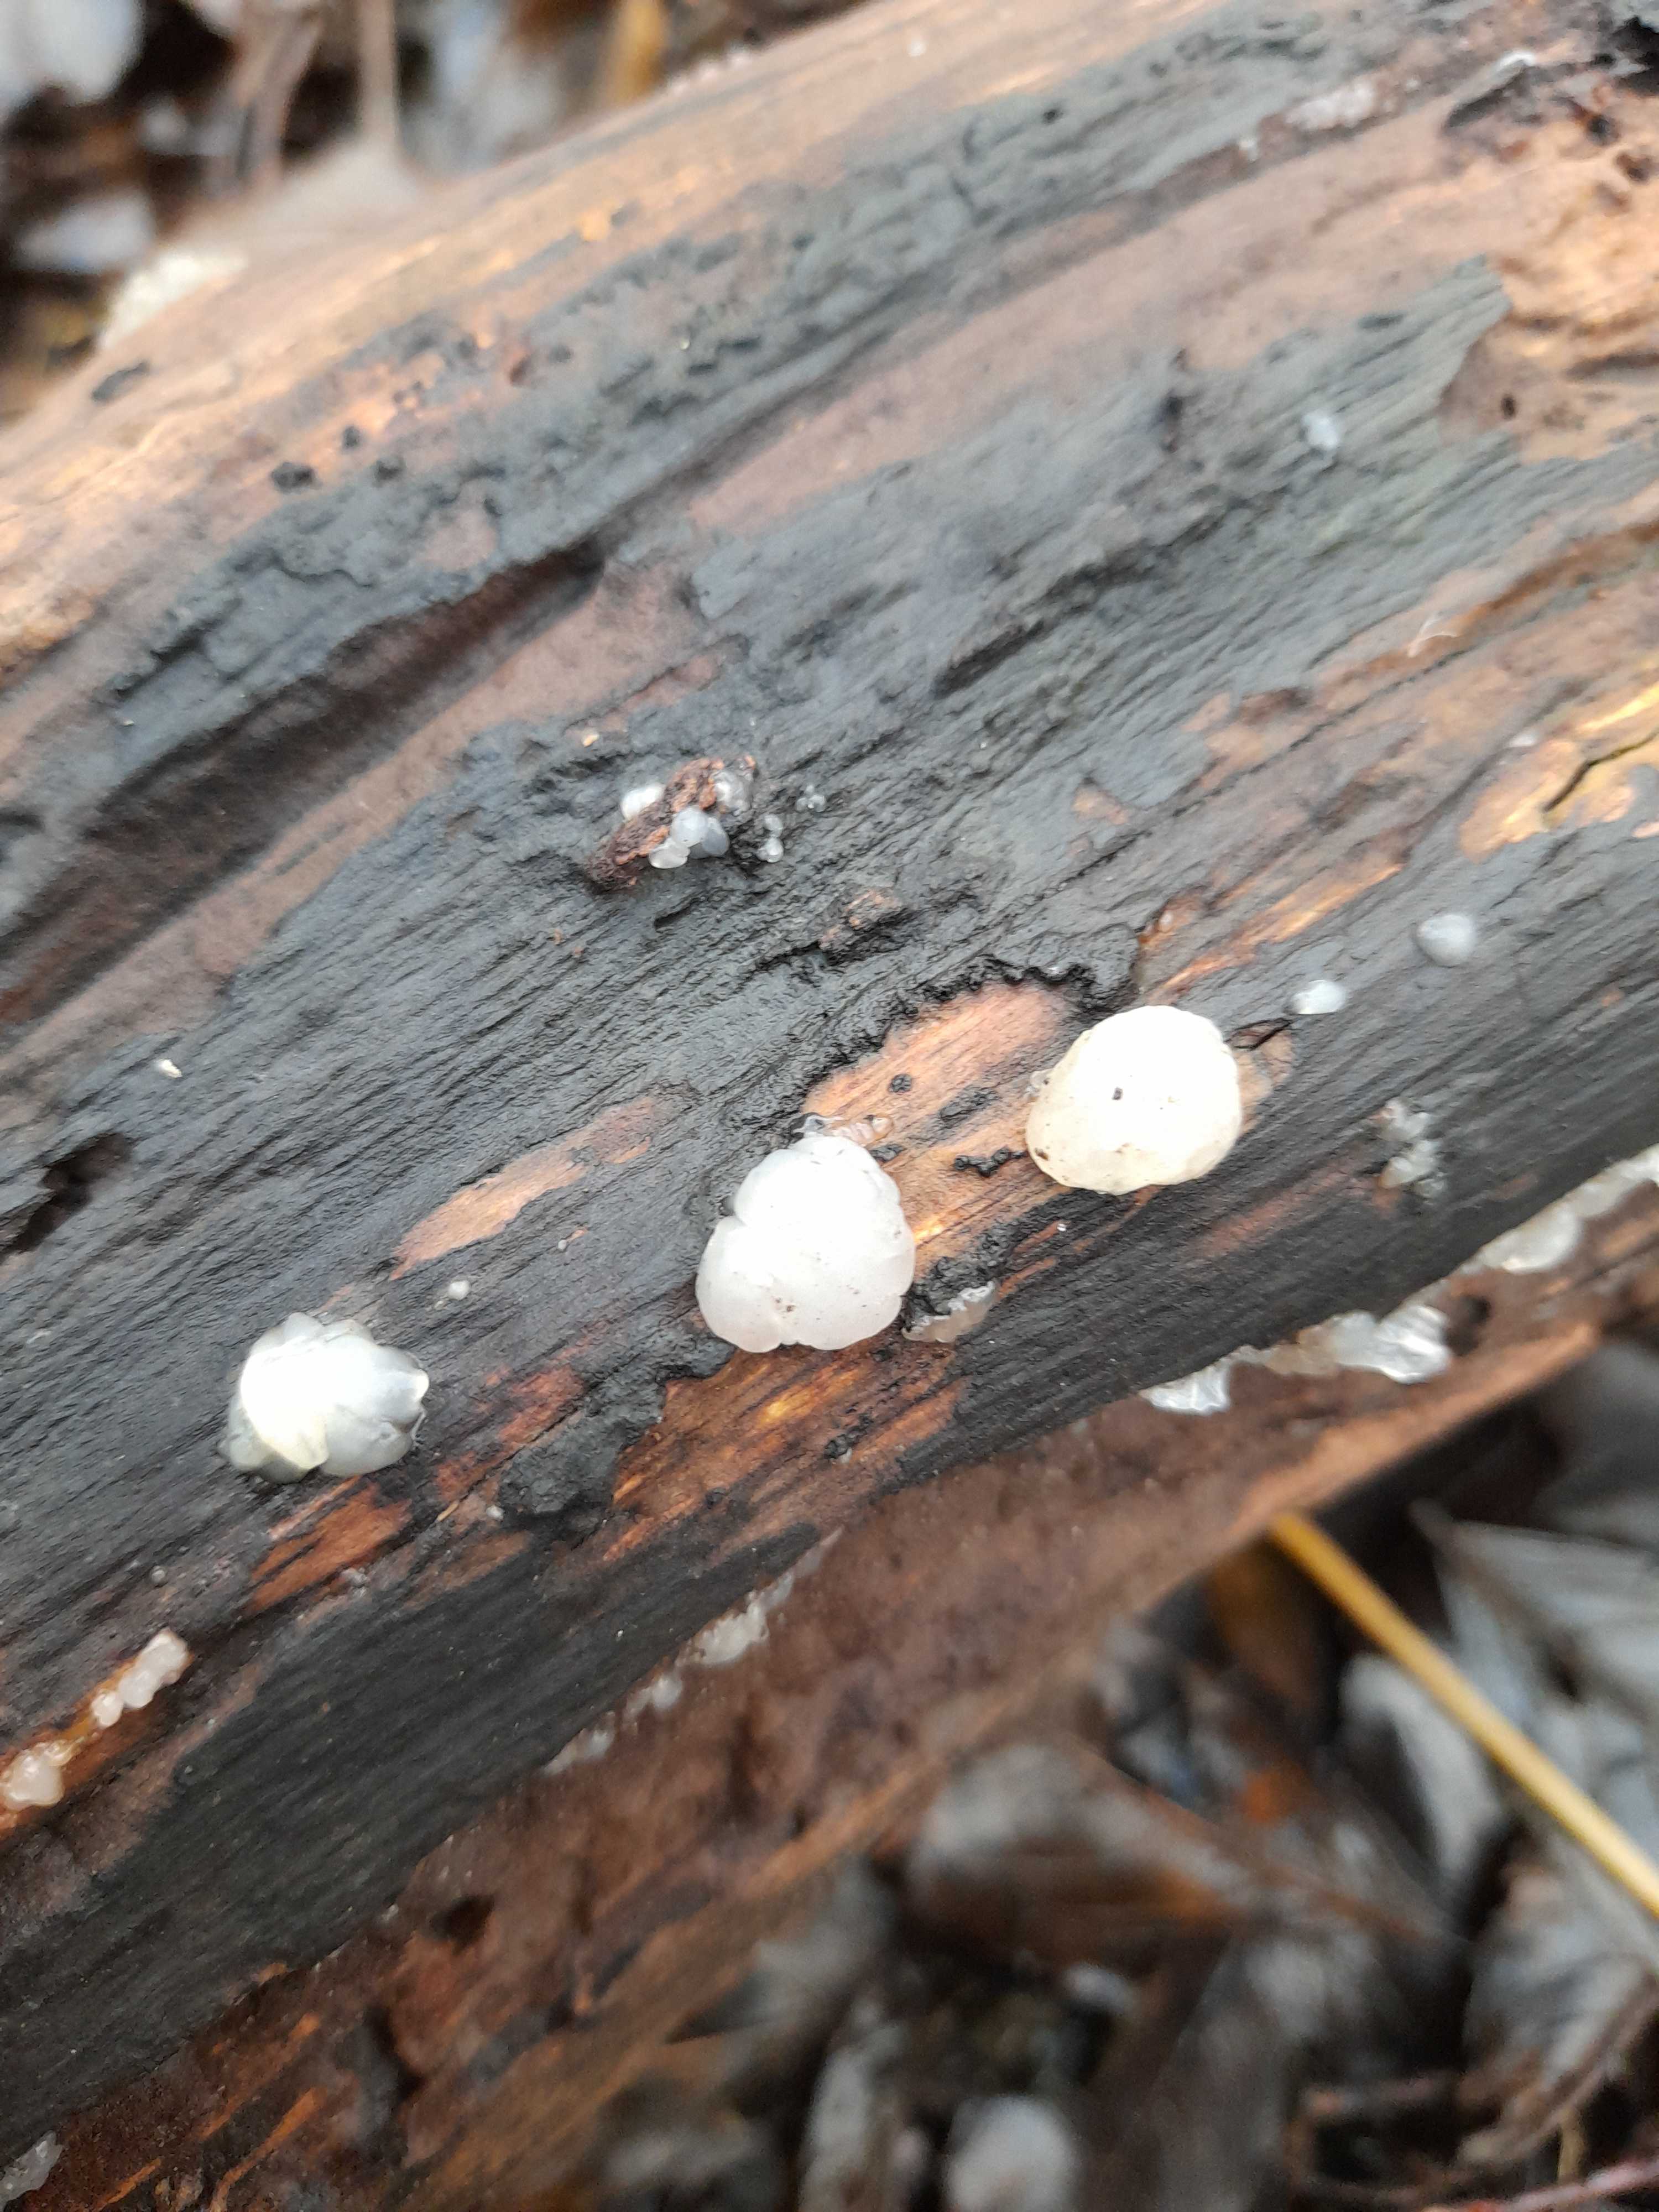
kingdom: Fungi
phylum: Basidiomycota
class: Agaricomycetes
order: Auriculariales
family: Auriculariaceae
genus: Exidia
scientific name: Exidia thuretiana
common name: hvidlig bævretop
